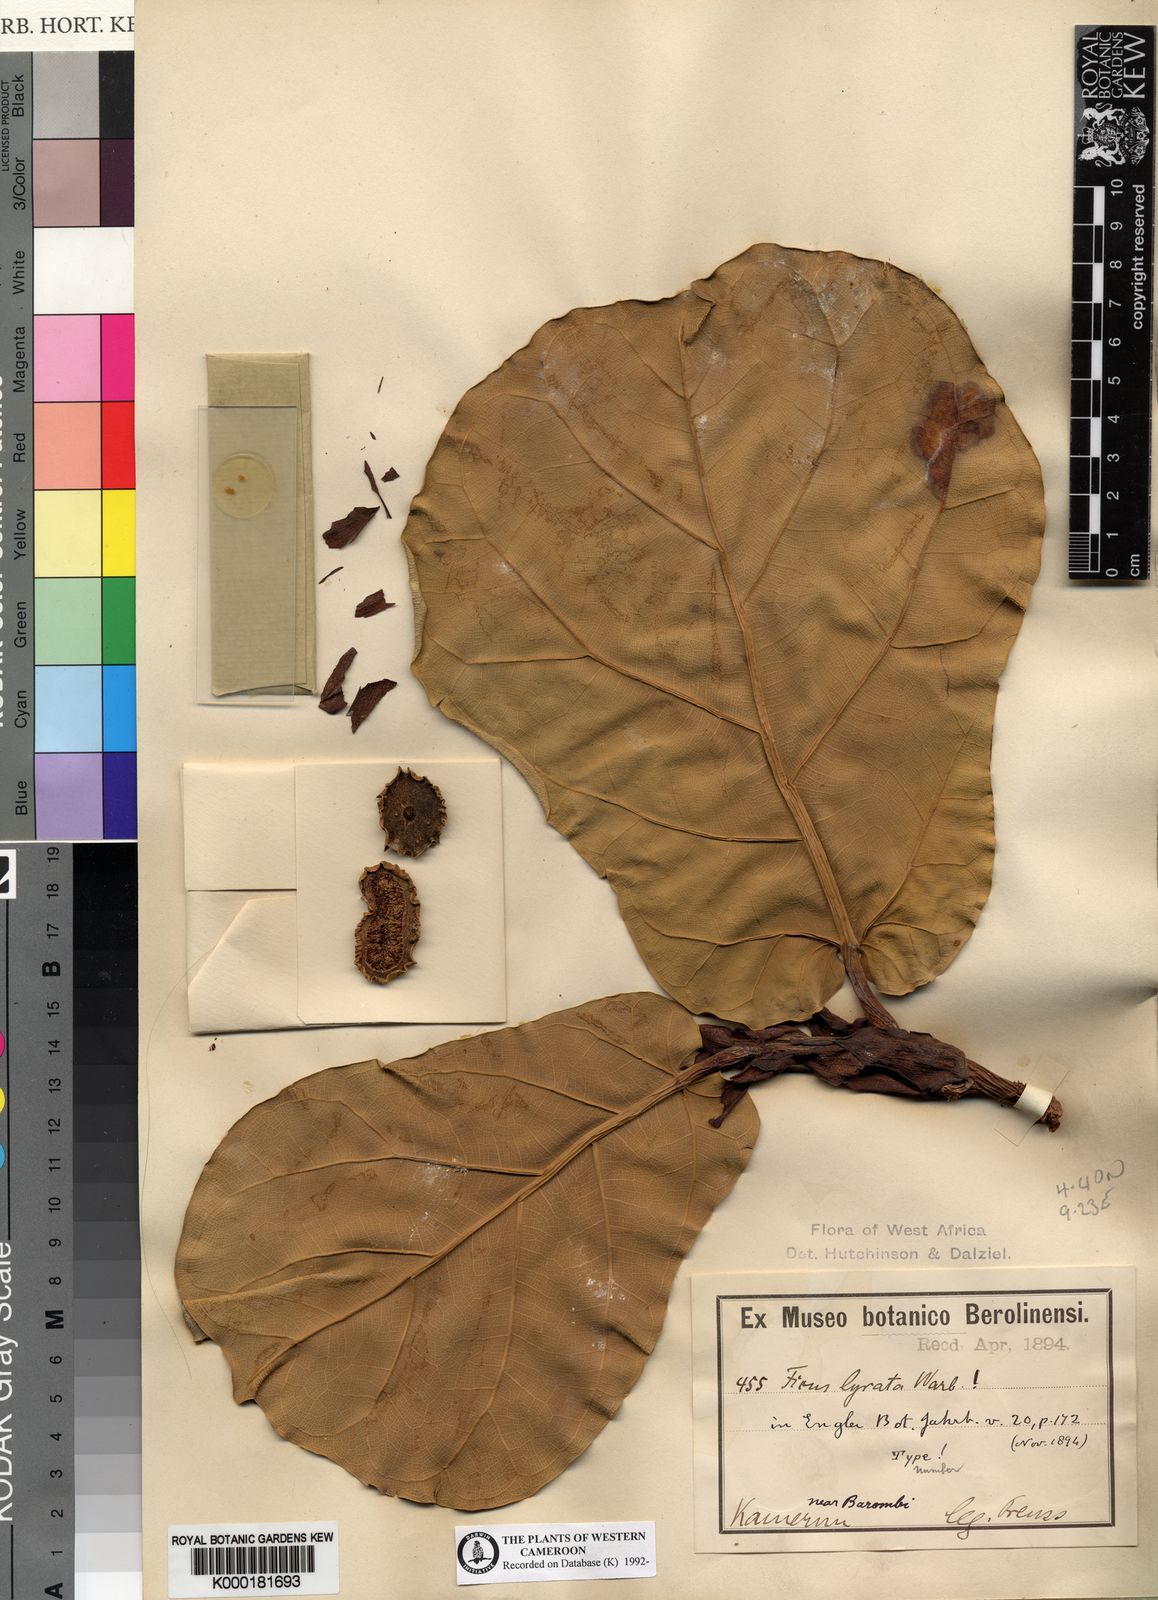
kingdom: Plantae
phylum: Tracheophyta
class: Magnoliopsida
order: Rosales
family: Moraceae
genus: Ficus
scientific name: Ficus lyrata
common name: Fiddle-leaf fig
